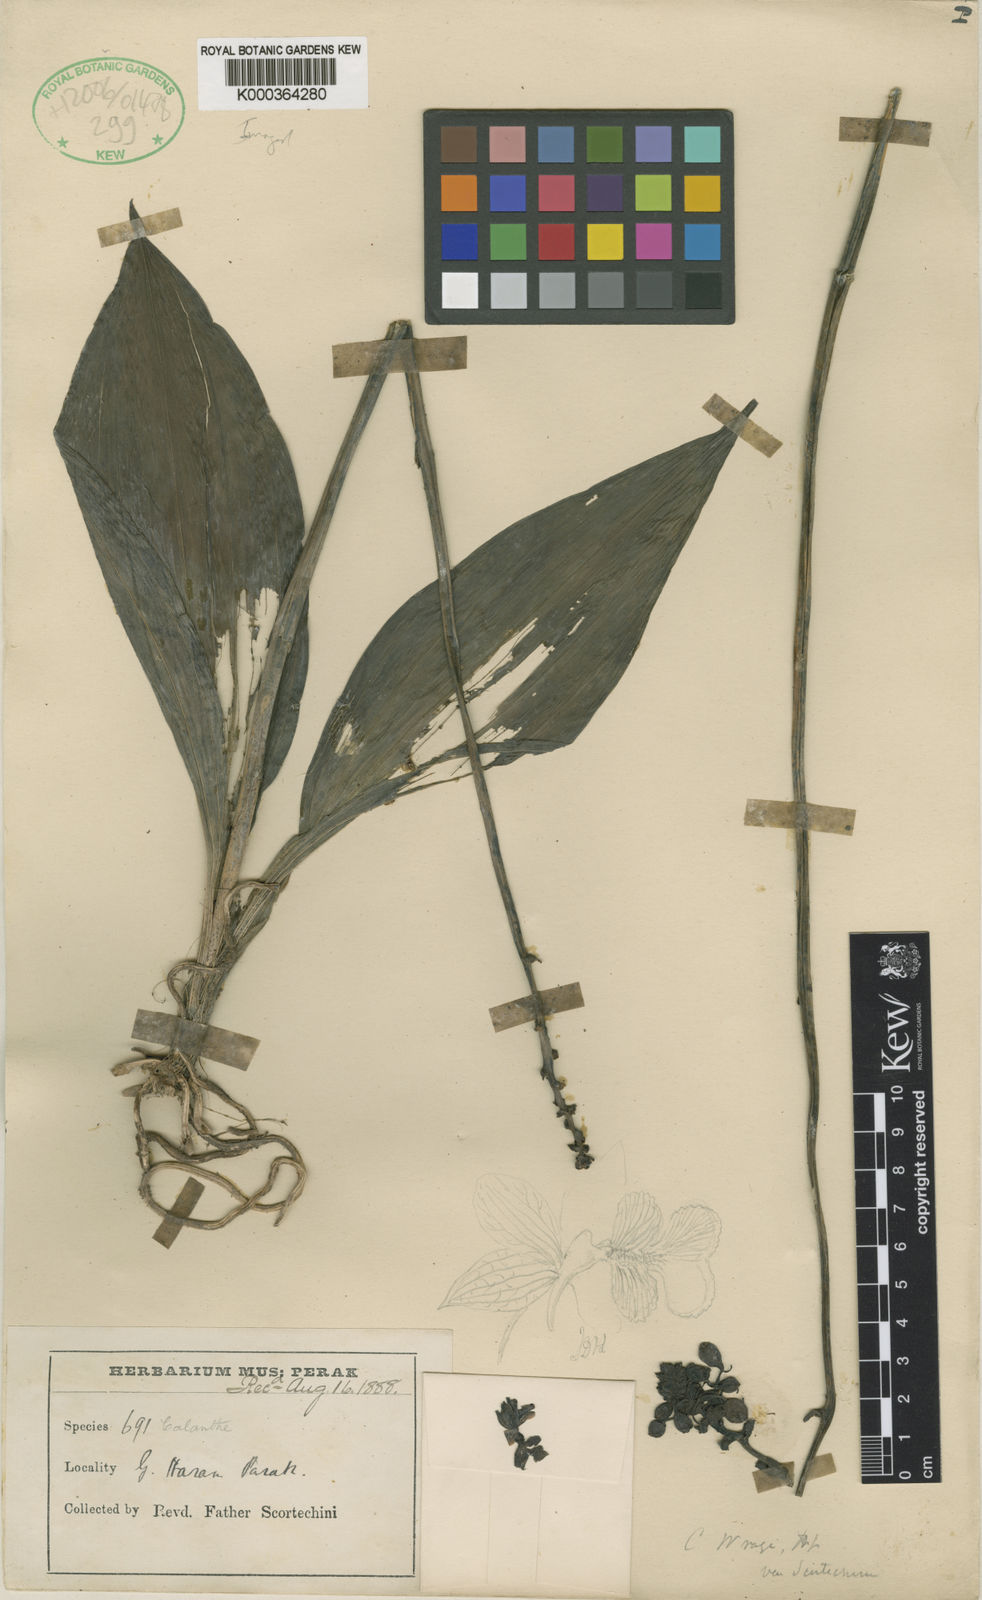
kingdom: Plantae
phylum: Tracheophyta
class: Liliopsida
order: Asparagales
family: Orchidaceae
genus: Calanthe
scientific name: Calanthe ceciliae
